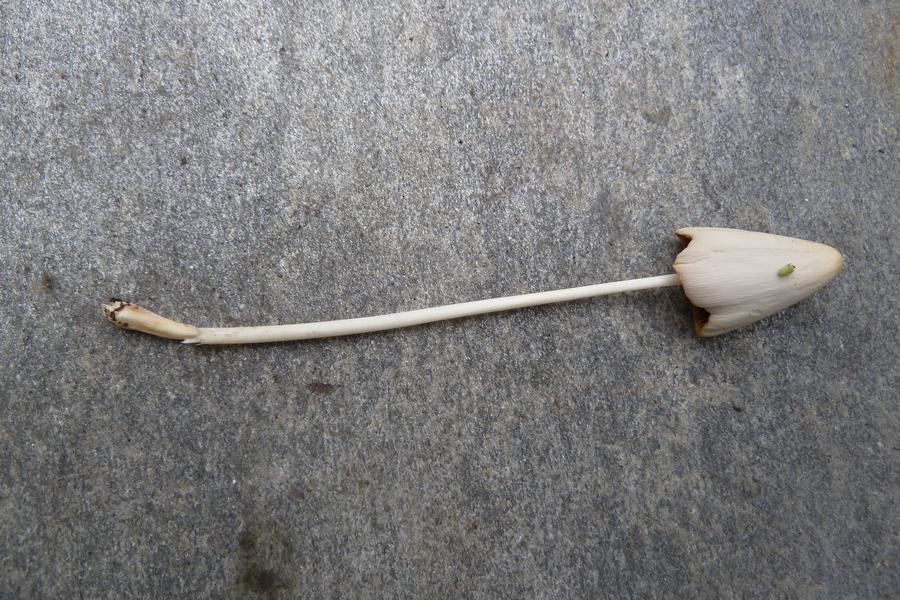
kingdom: Fungi
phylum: Basidiomycota
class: Agaricomycetes
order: Agaricales
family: Bolbitiaceae
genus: Conocybe
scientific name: Conocybe apala
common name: mælkehvid keglehat
